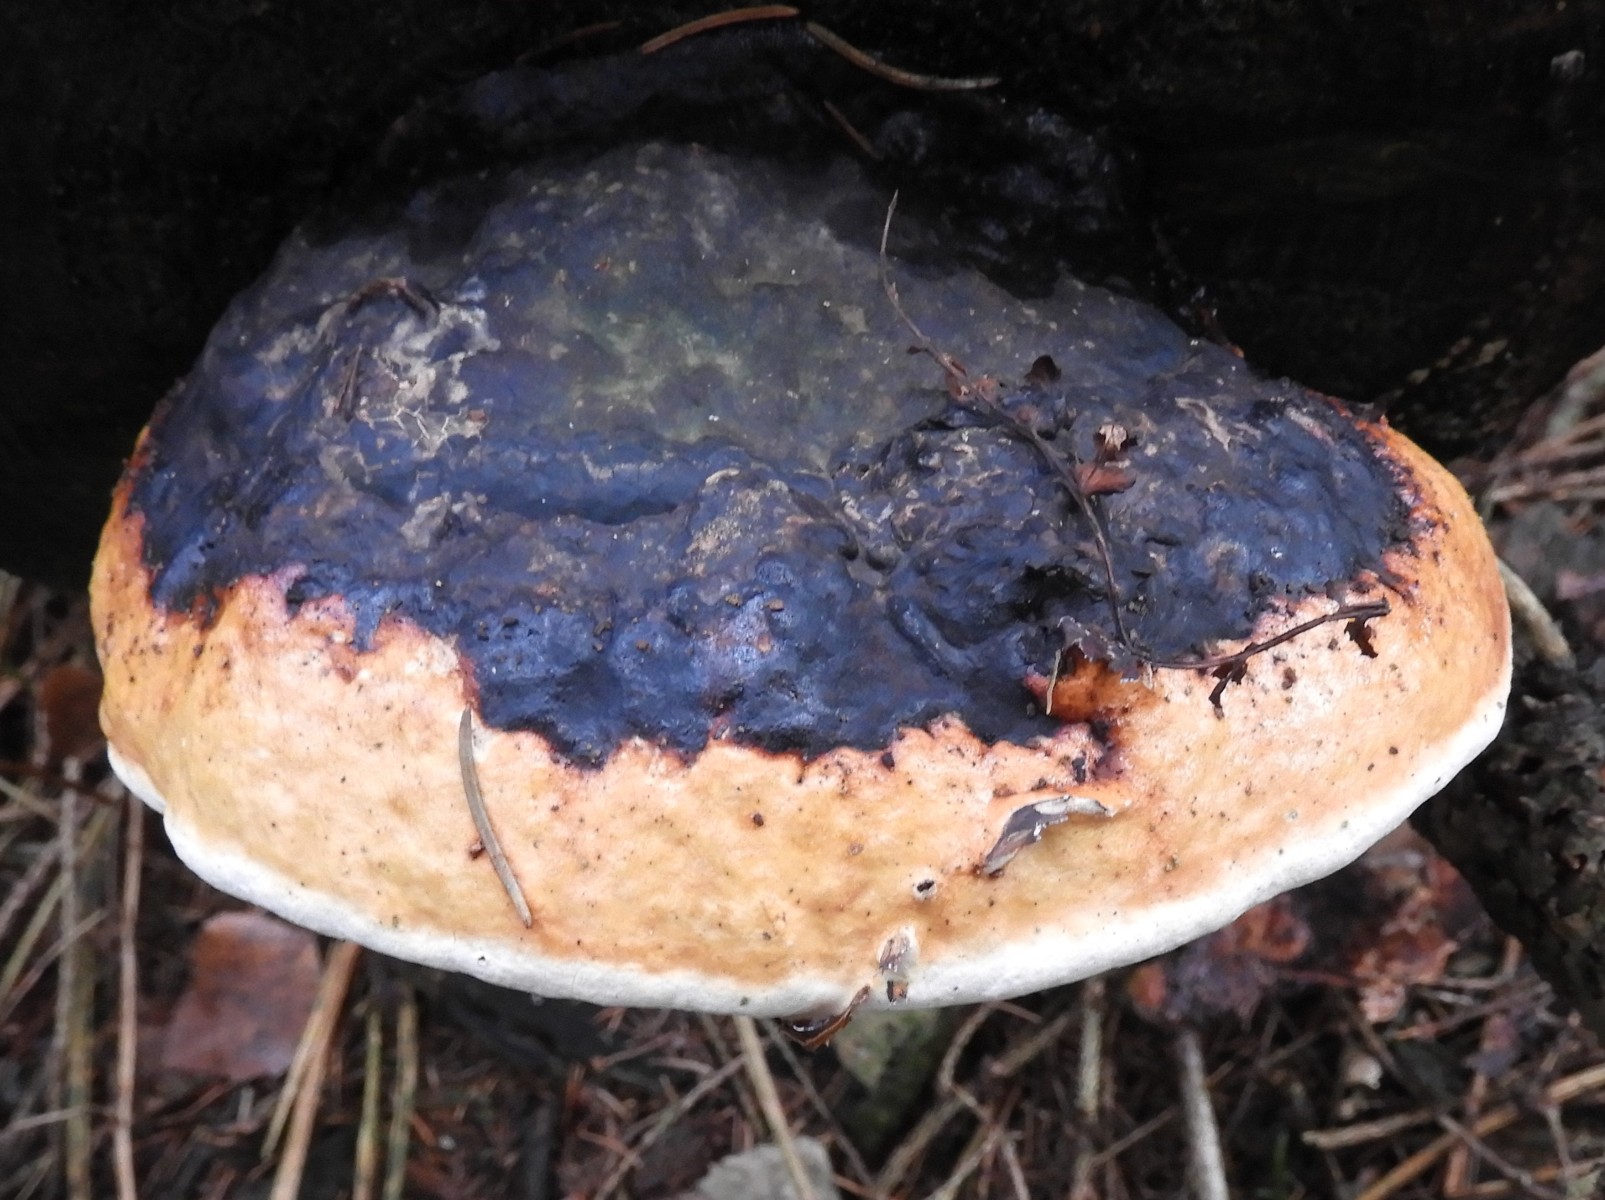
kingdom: Fungi
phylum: Basidiomycota
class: Agaricomycetes
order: Polyporales
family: Fomitopsidaceae
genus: Fomitopsis
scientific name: Fomitopsis pinicola
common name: randbæltet hovporesvamp
